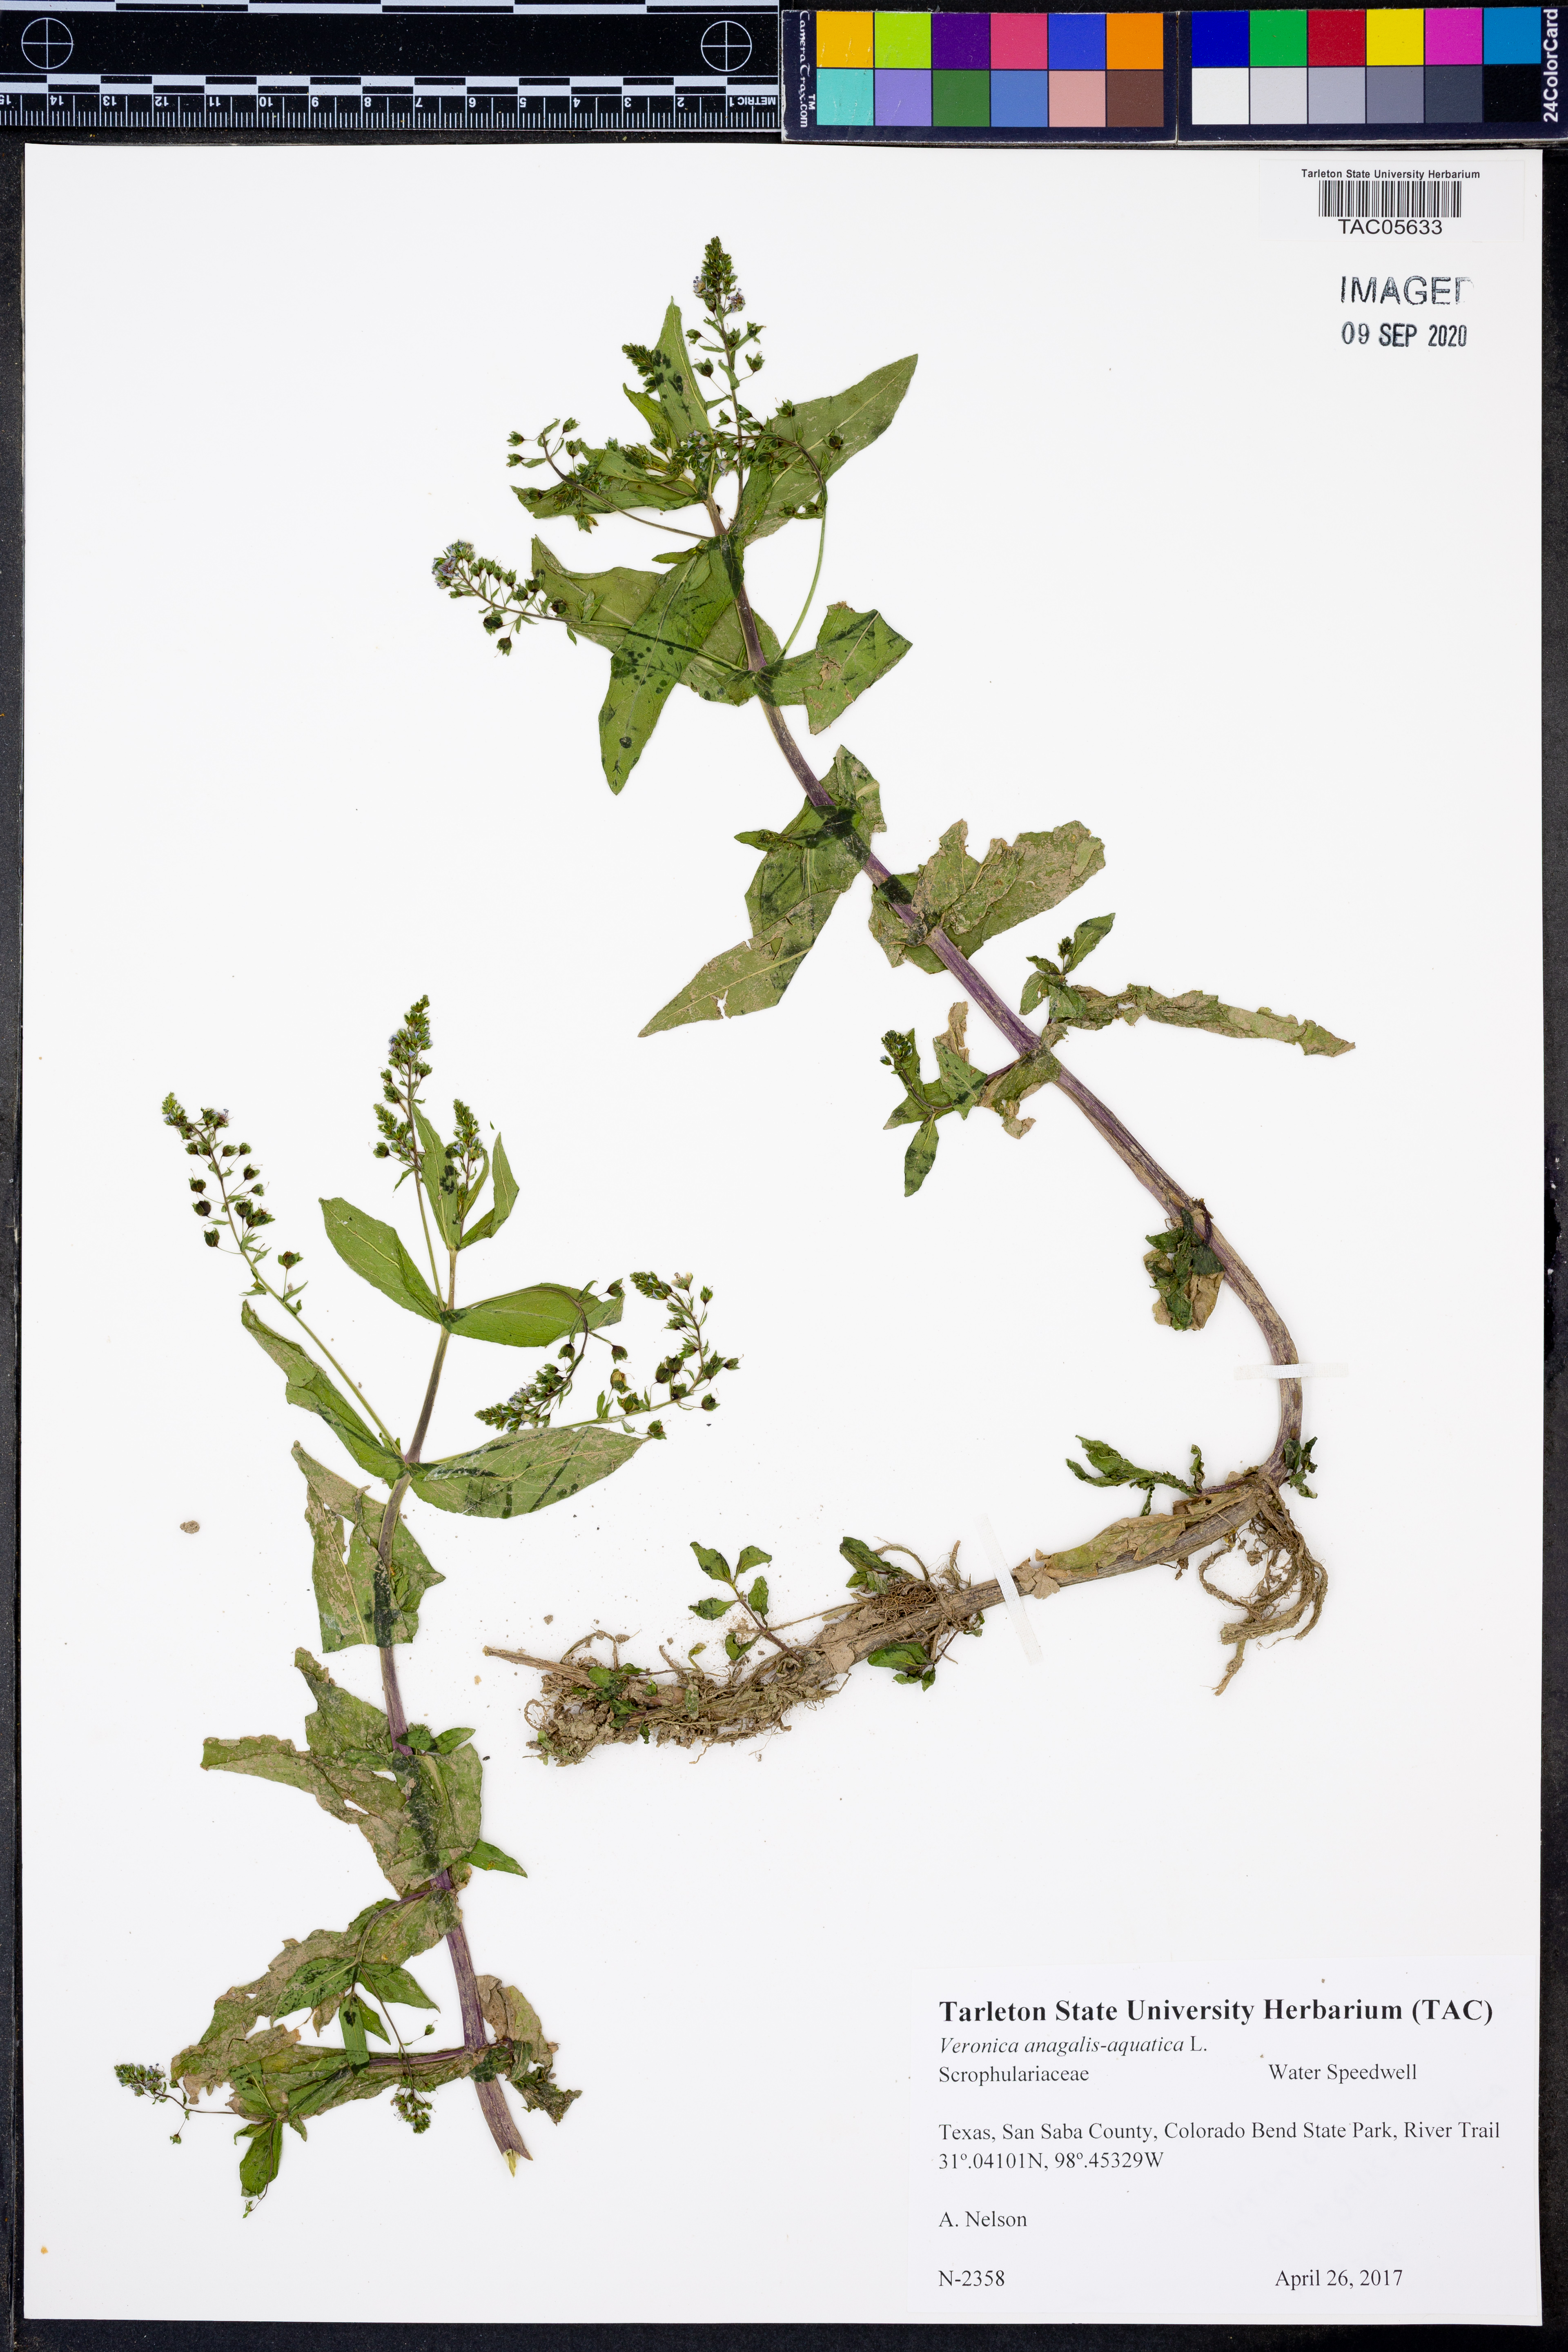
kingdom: Plantae
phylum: Tracheophyta
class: Magnoliopsida
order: Lamiales
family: Plantaginaceae
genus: Veronica
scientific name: Veronica anagallis-aquatica
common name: Water speedwell
